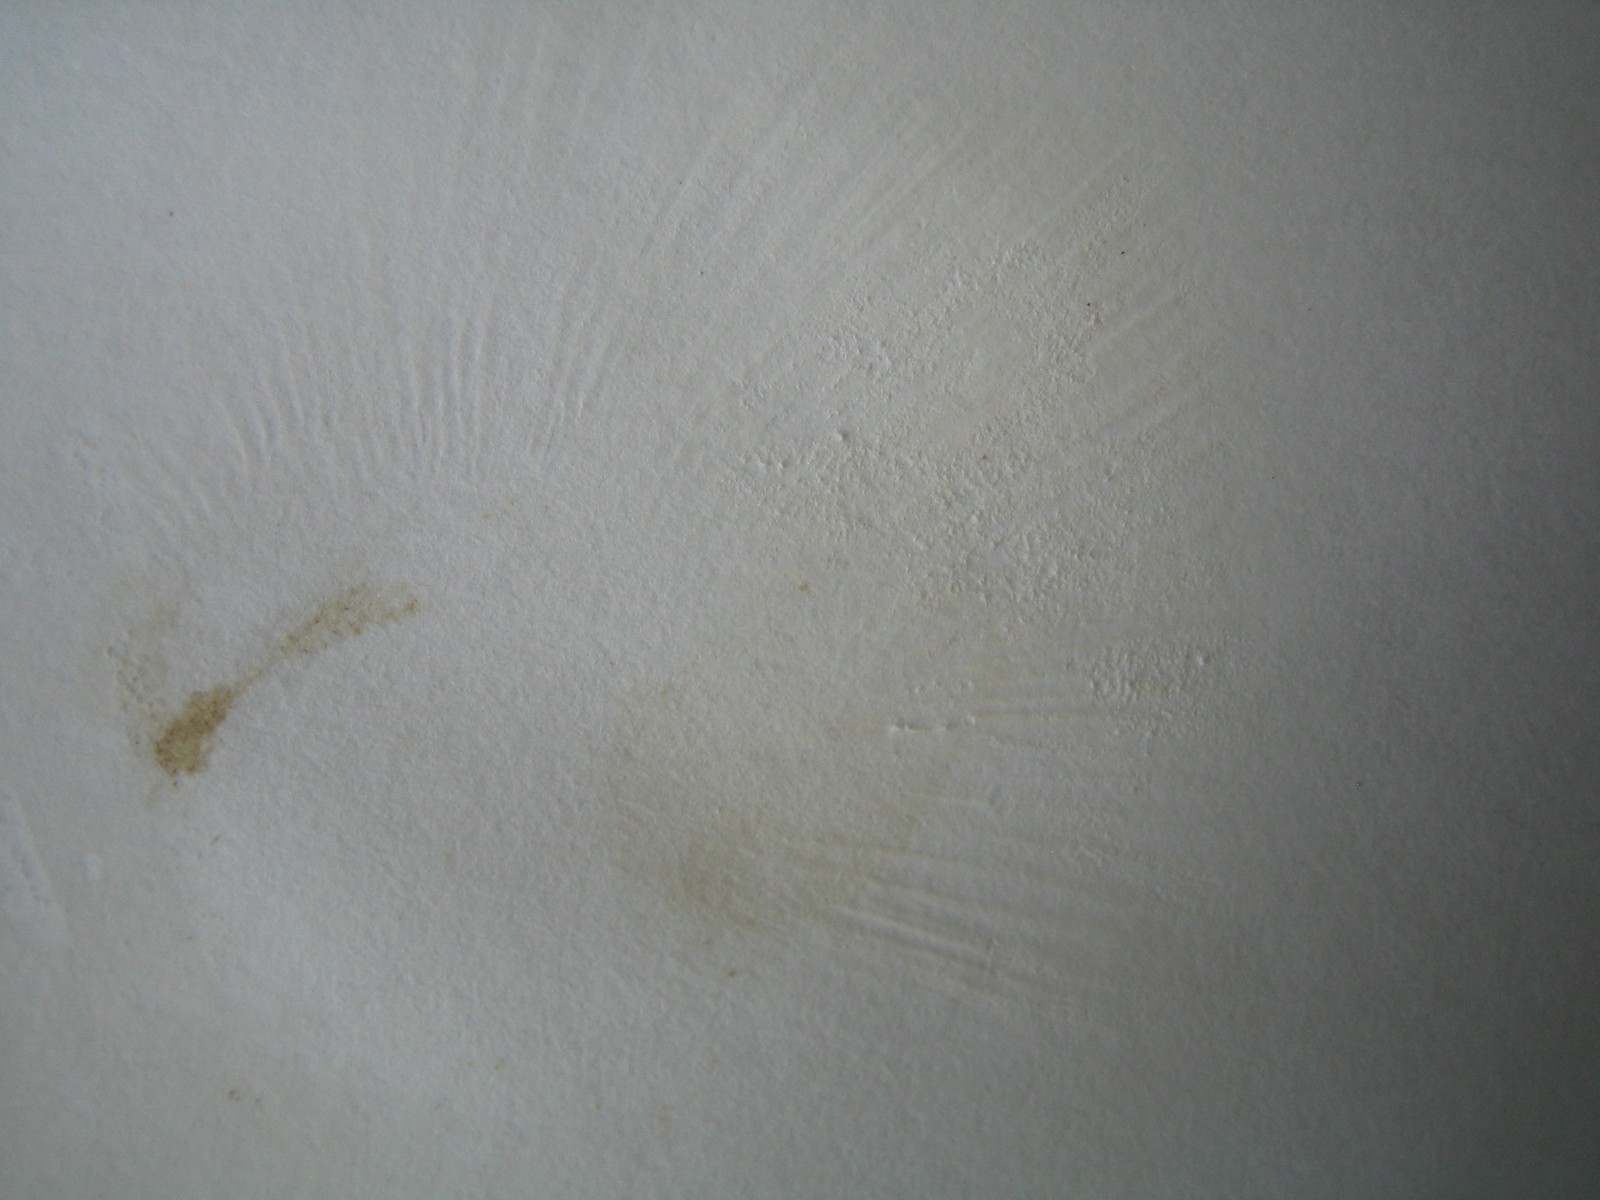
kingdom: Fungi
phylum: Basidiomycota
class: Agaricomycetes
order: Russulales
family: Russulaceae
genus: Russula
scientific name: Russula fragilis
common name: savbladet skørhat
